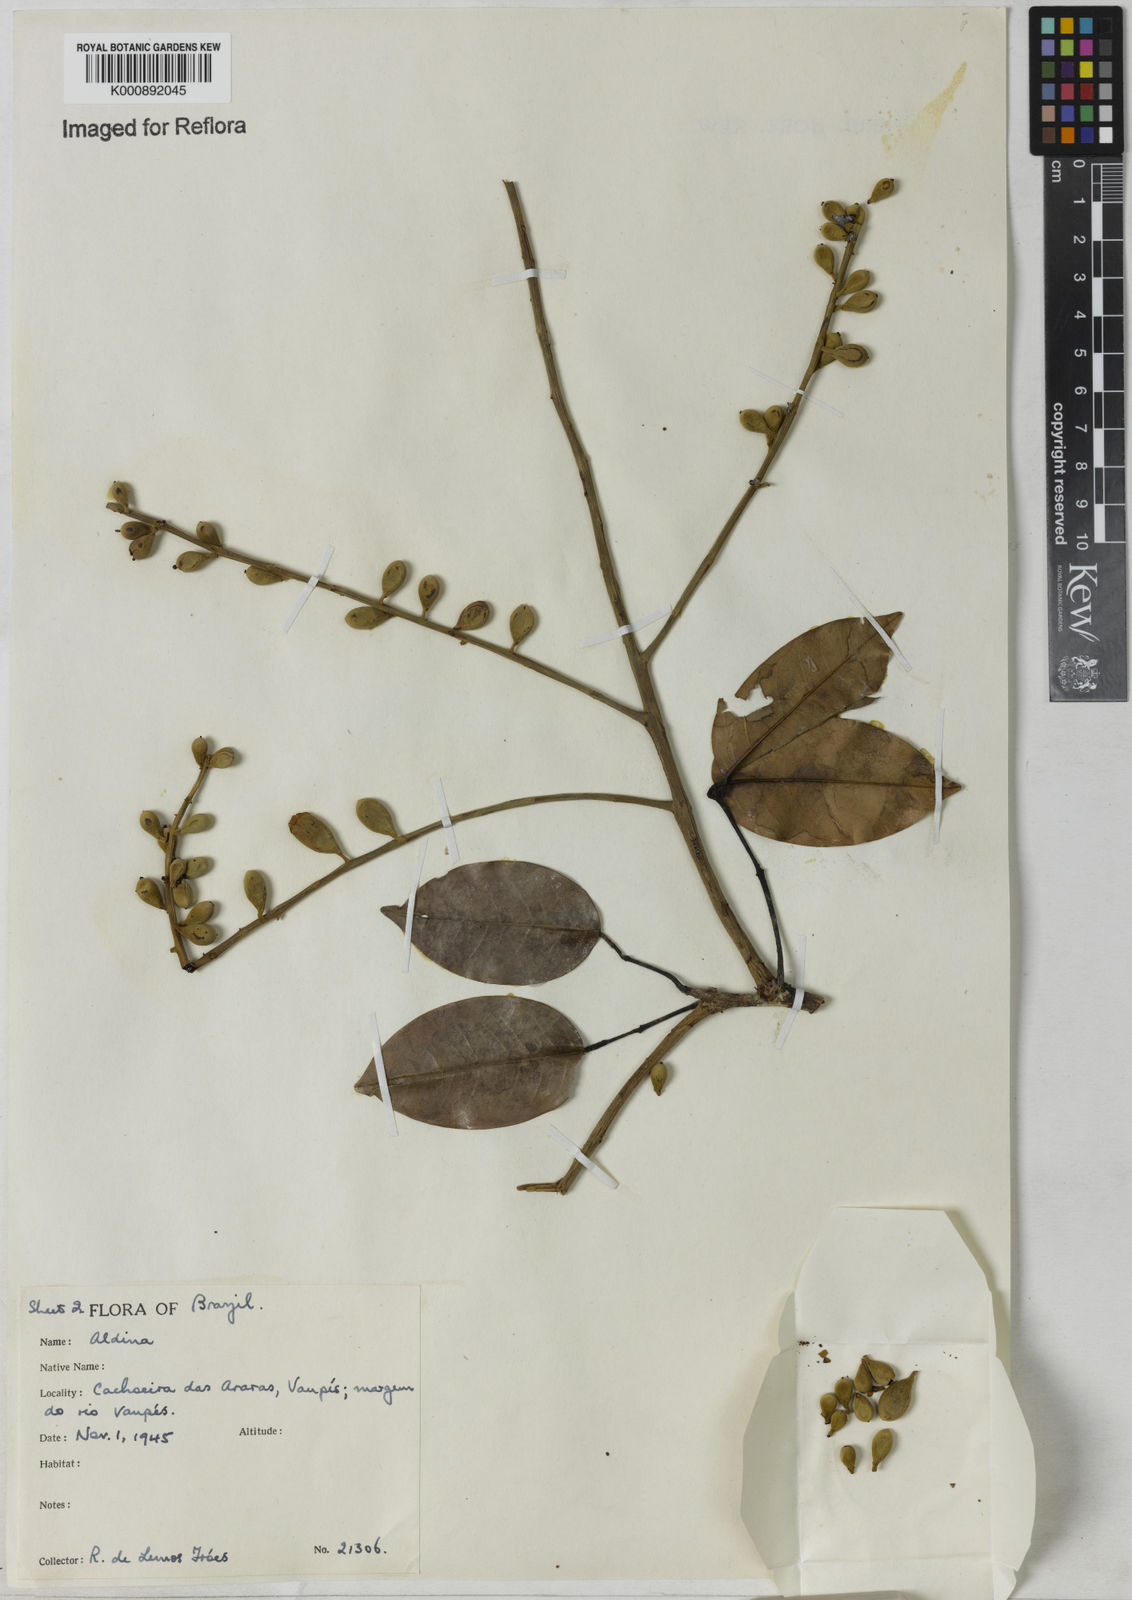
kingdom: Plantae
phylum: Tracheophyta
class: Magnoliopsida
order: Fabales
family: Fabaceae
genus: Aldina
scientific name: Aldina
